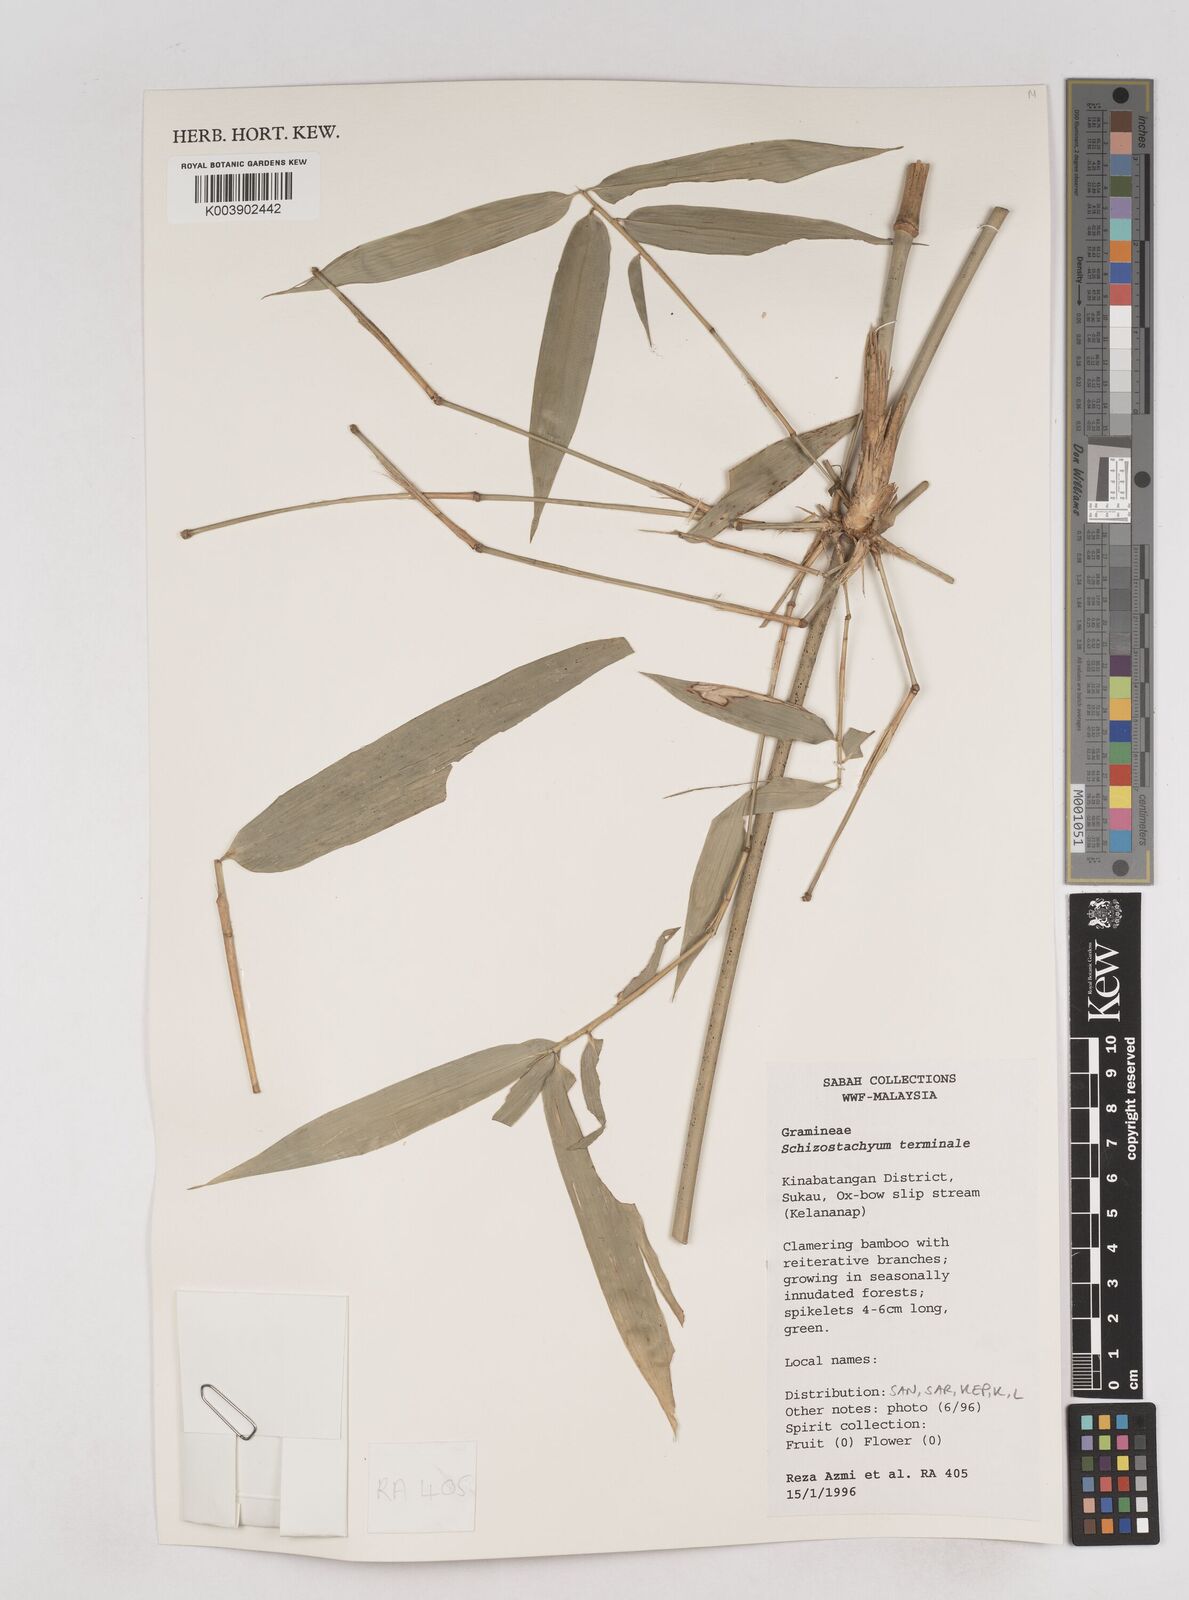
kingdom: Plantae
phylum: Tracheophyta
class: Liliopsida
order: Poales
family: Poaceae
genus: Schizostachyum
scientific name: Schizostachyum
